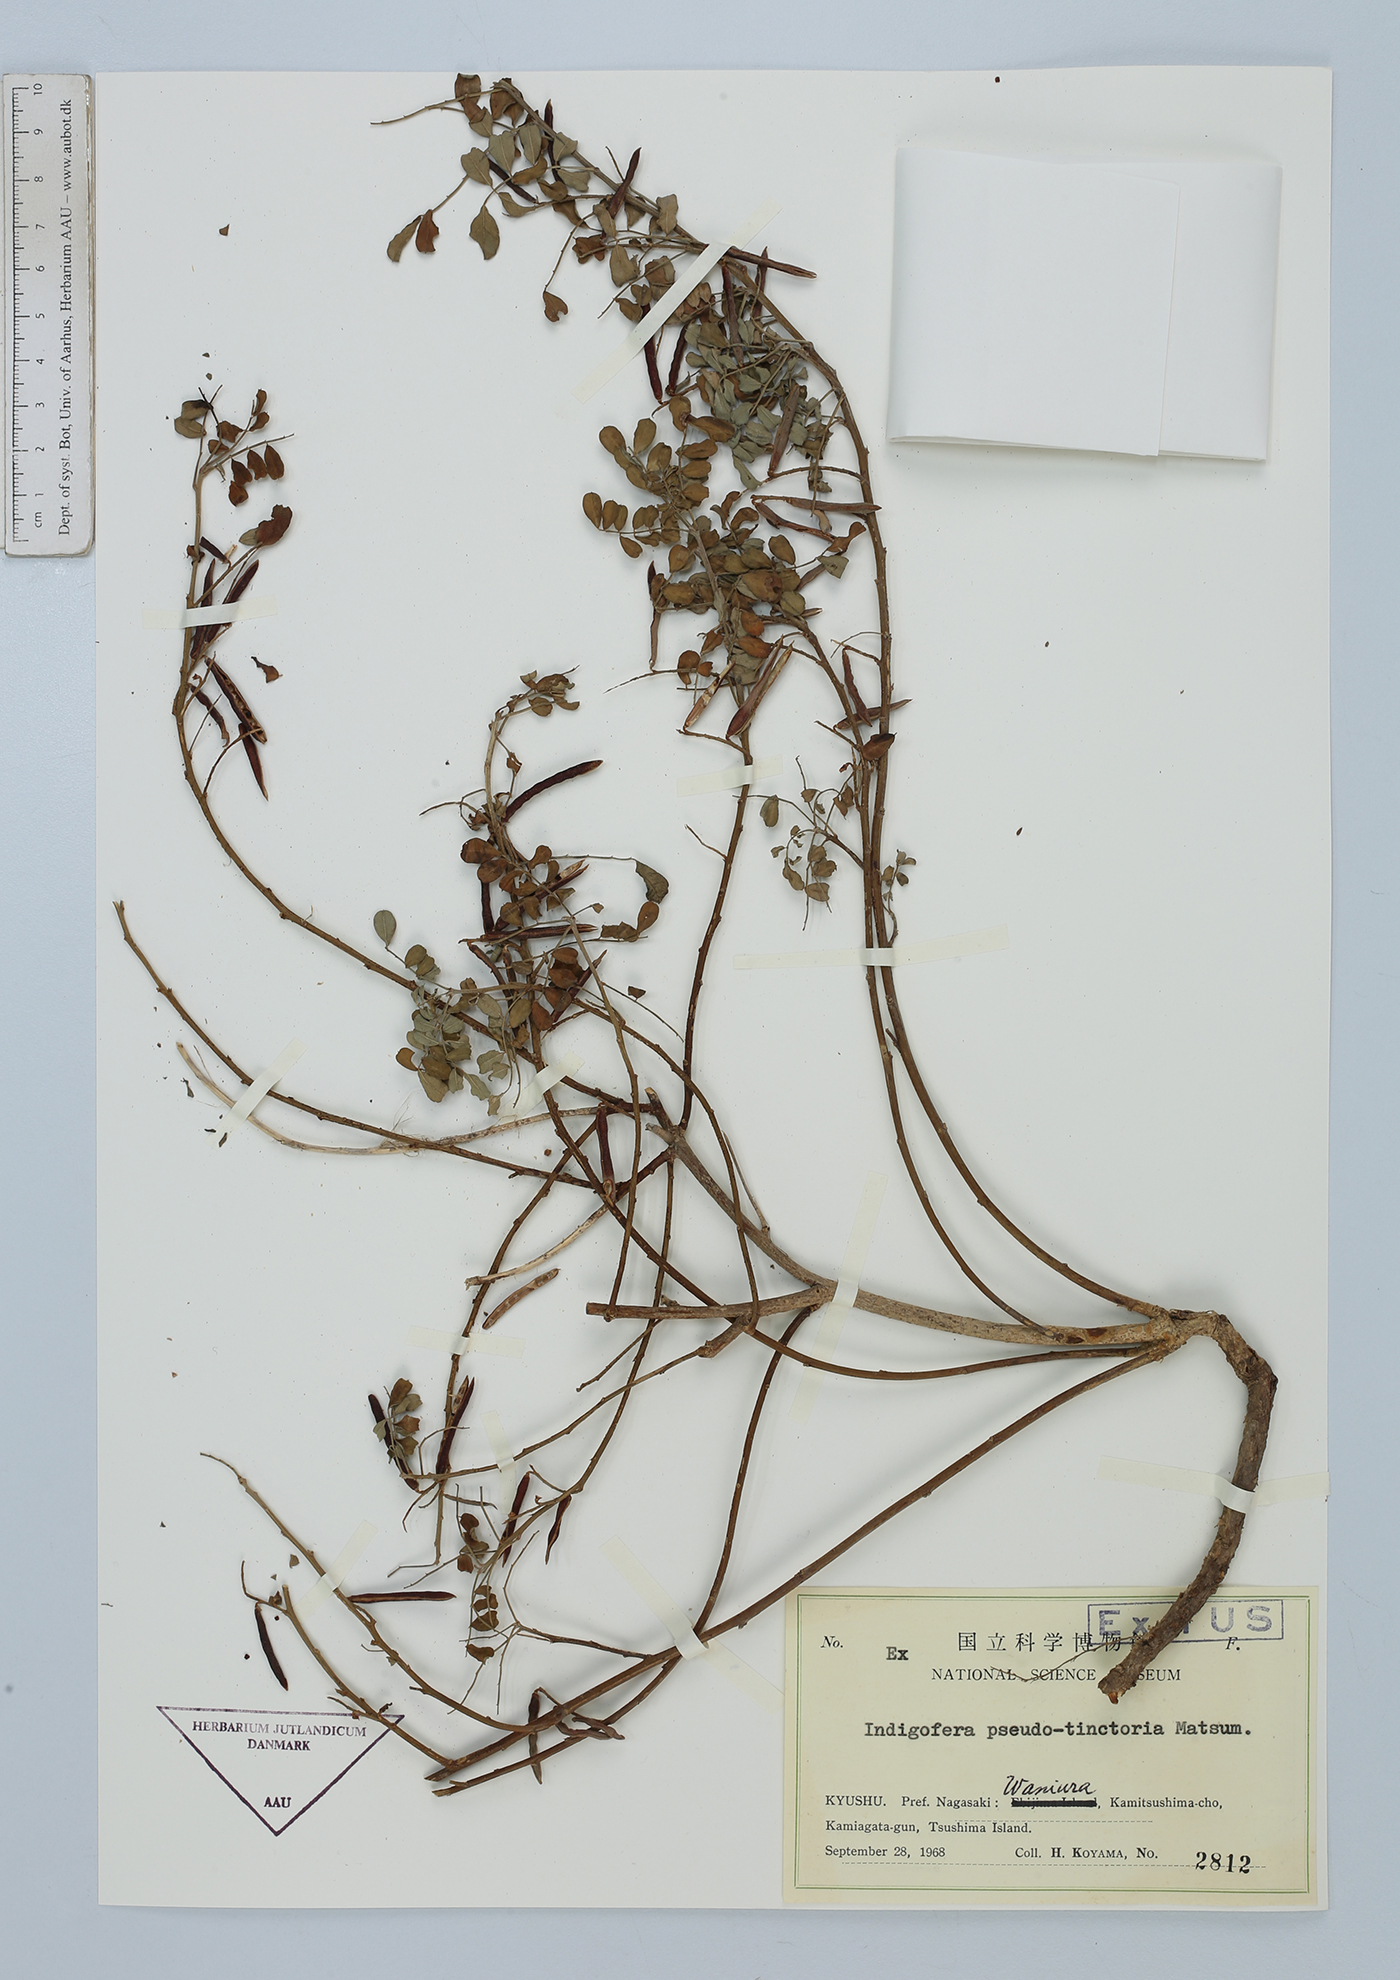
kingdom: Plantae
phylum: Tracheophyta
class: Magnoliopsida
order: Fabales
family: Fabaceae
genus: Indigofera
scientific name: Indigofera bungeana
